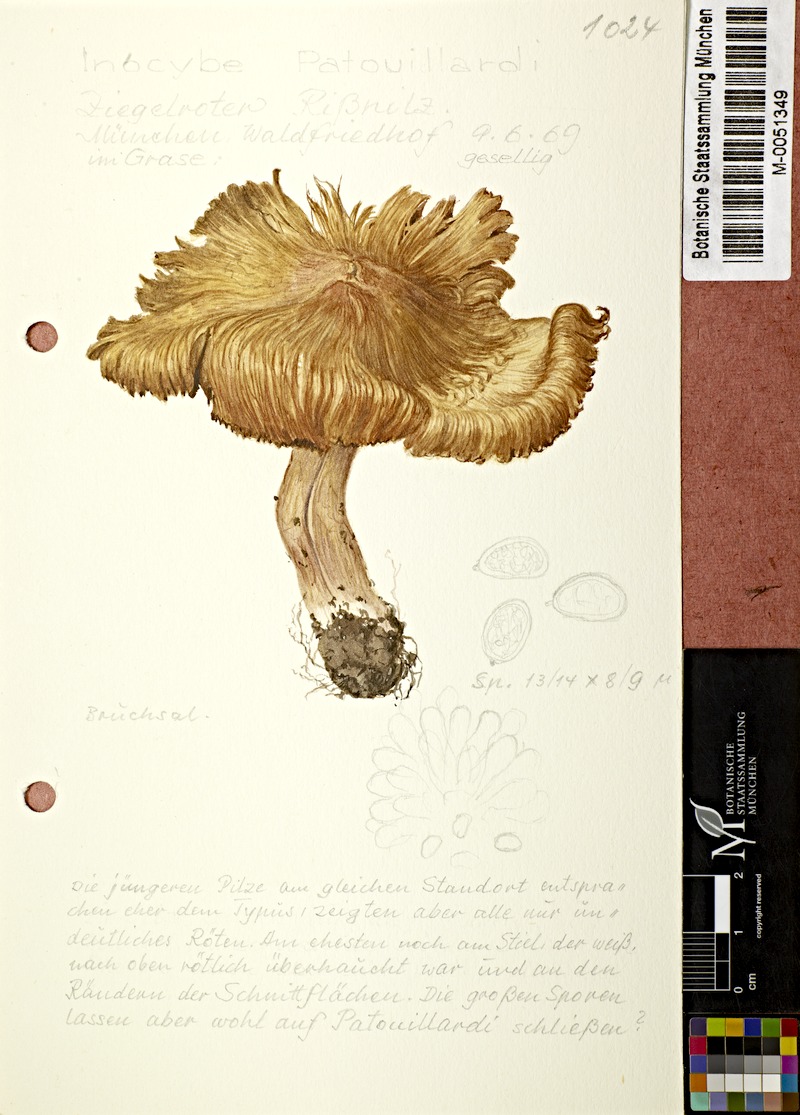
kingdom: Fungi
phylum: Basidiomycota
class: Agaricomycetes
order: Agaricales
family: Inocybaceae
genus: Inosperma
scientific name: Inosperma erubescens
